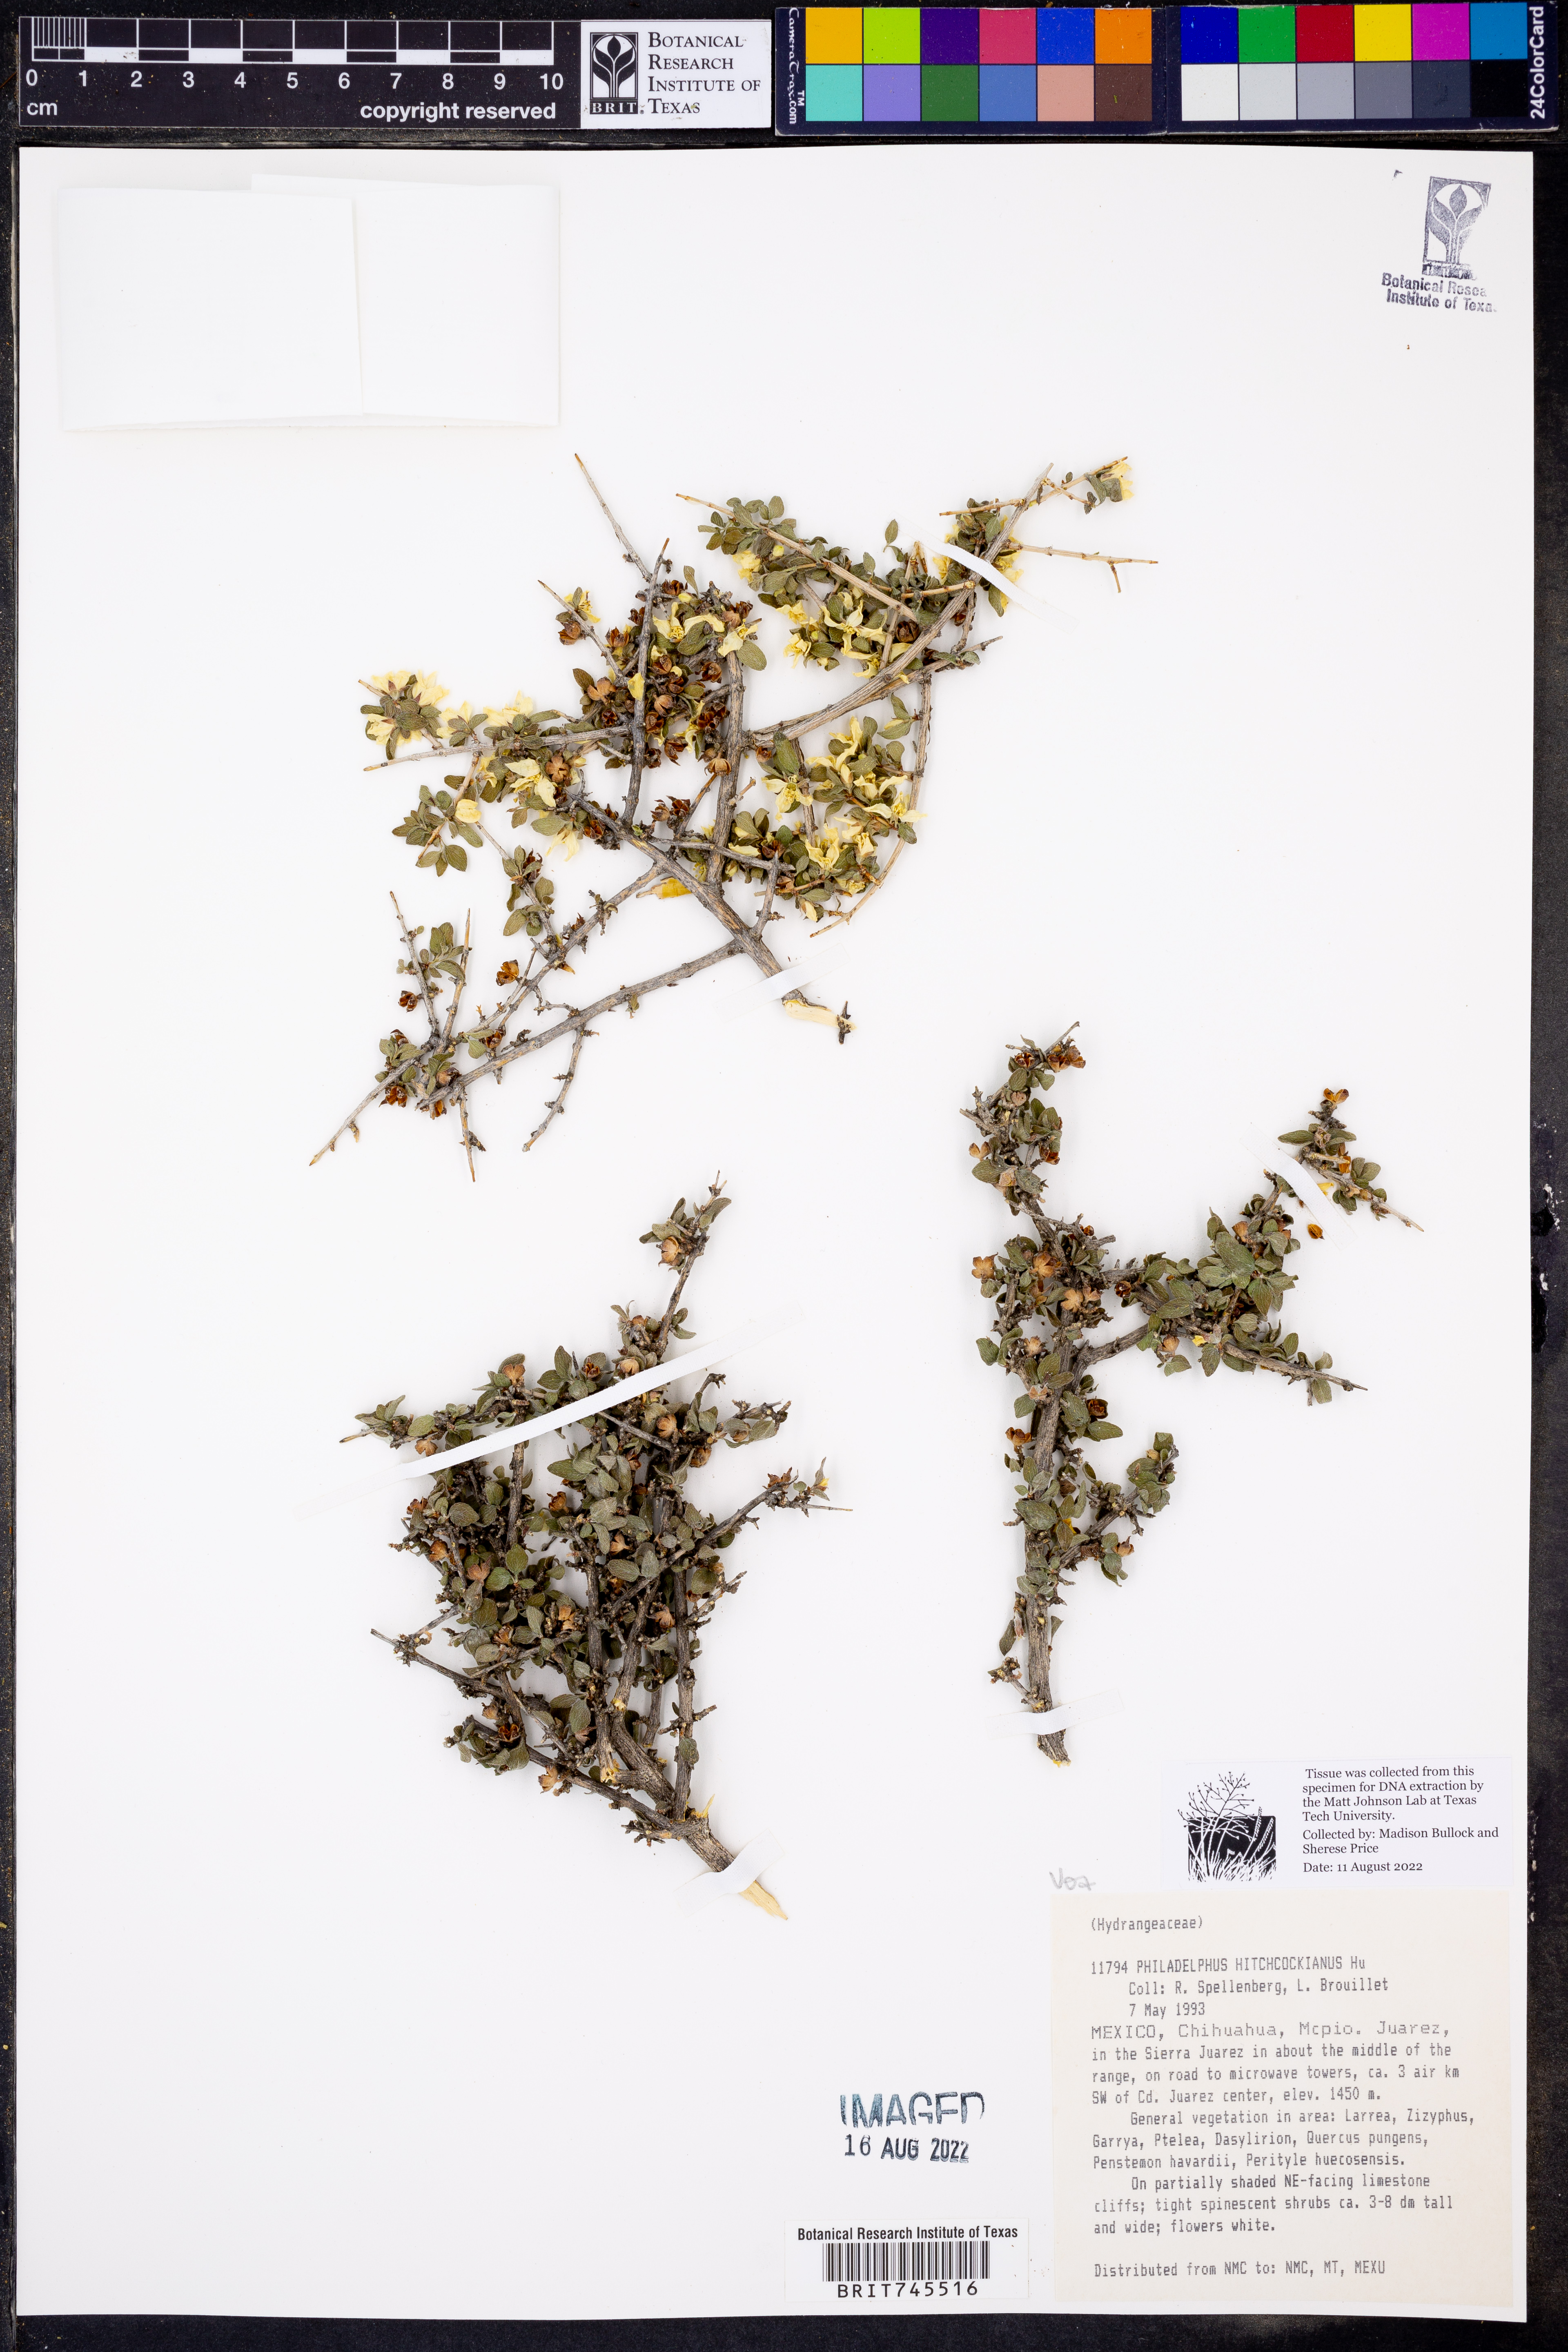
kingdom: Plantae
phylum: Tracheophyta
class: Magnoliopsida
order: Cornales
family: Hydrangeaceae
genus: Philadelphus
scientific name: Philadelphus mearnsii
